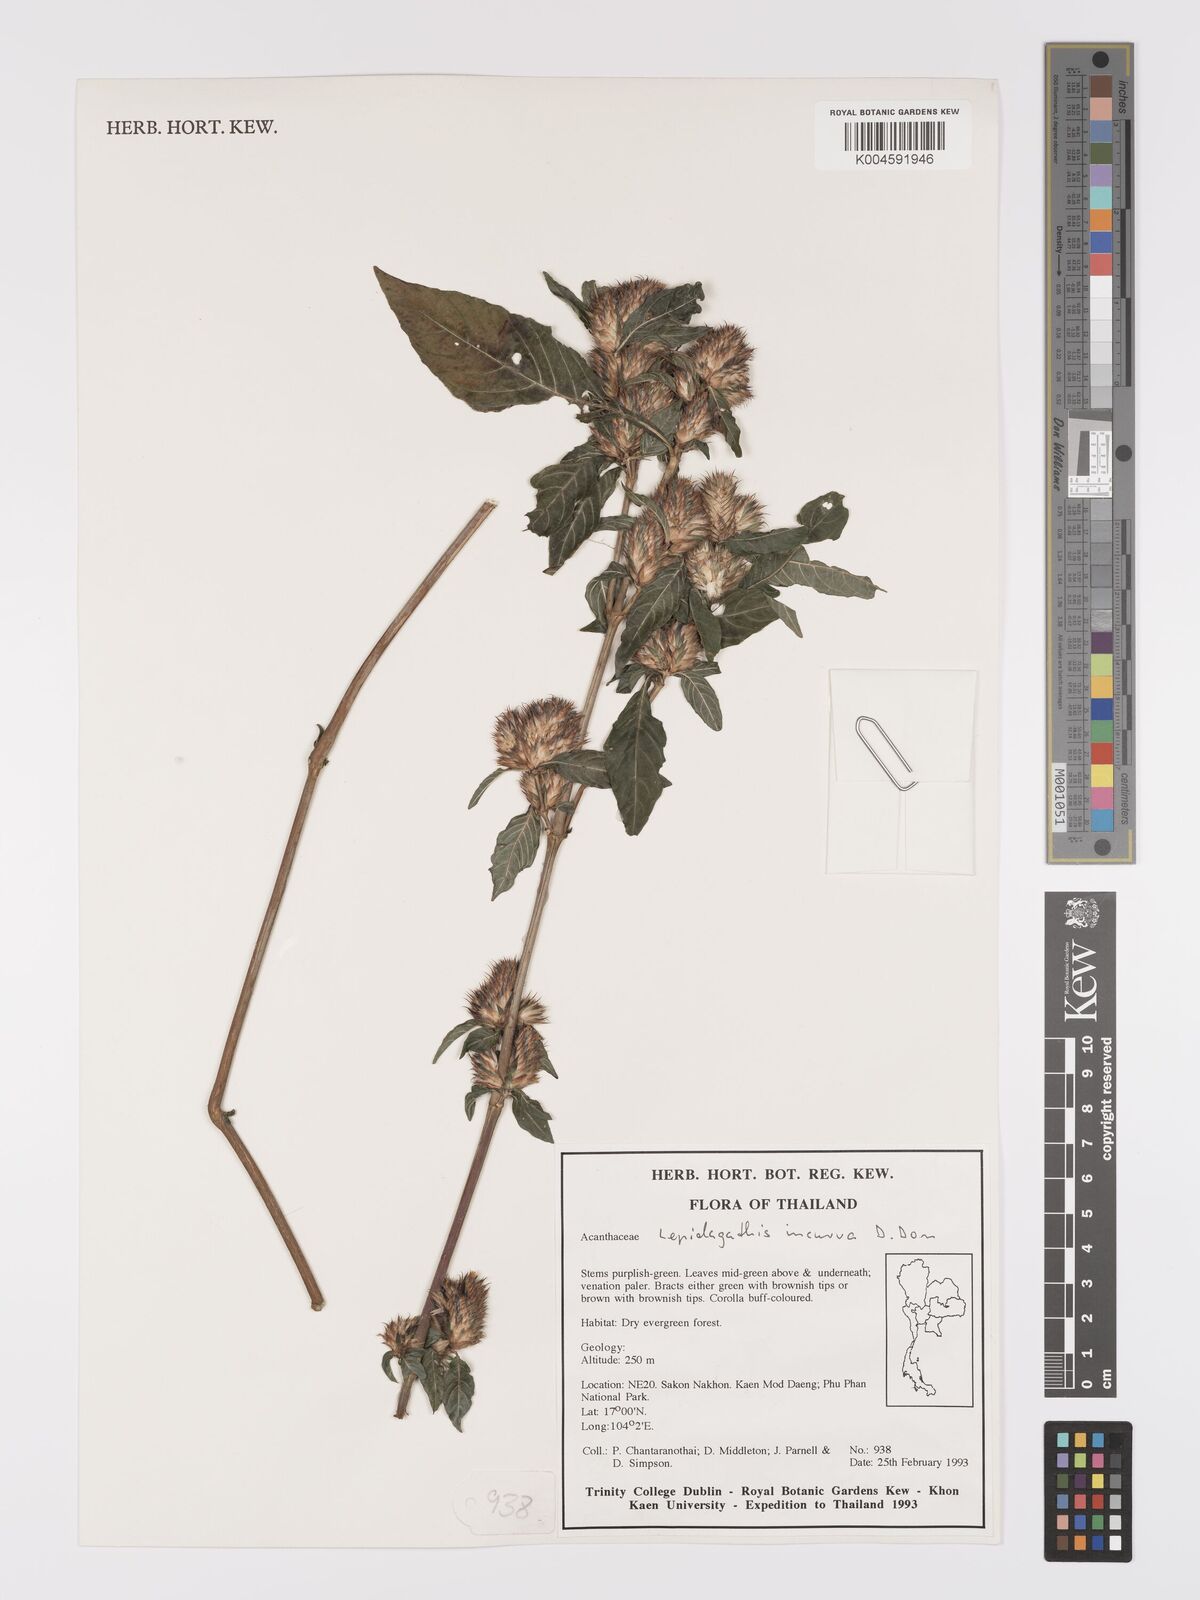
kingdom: Plantae
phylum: Tracheophyta
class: Magnoliopsida
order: Lamiales
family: Acanthaceae
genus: Lepidagathis
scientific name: Lepidagathis incurva
